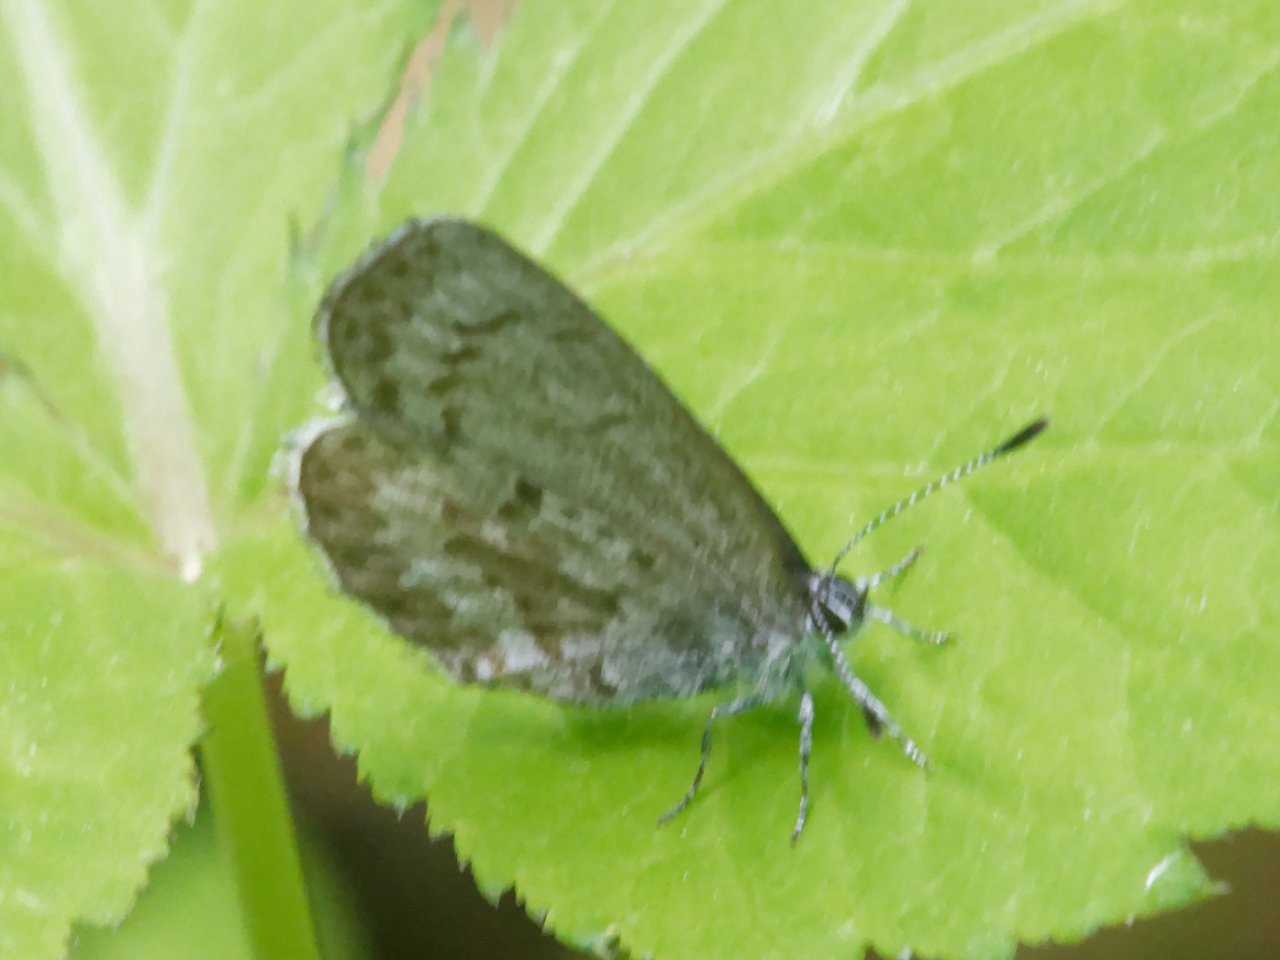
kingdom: Animalia
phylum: Arthropoda
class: Insecta
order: Lepidoptera
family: Lycaenidae
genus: Celastrina
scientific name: Celastrina
